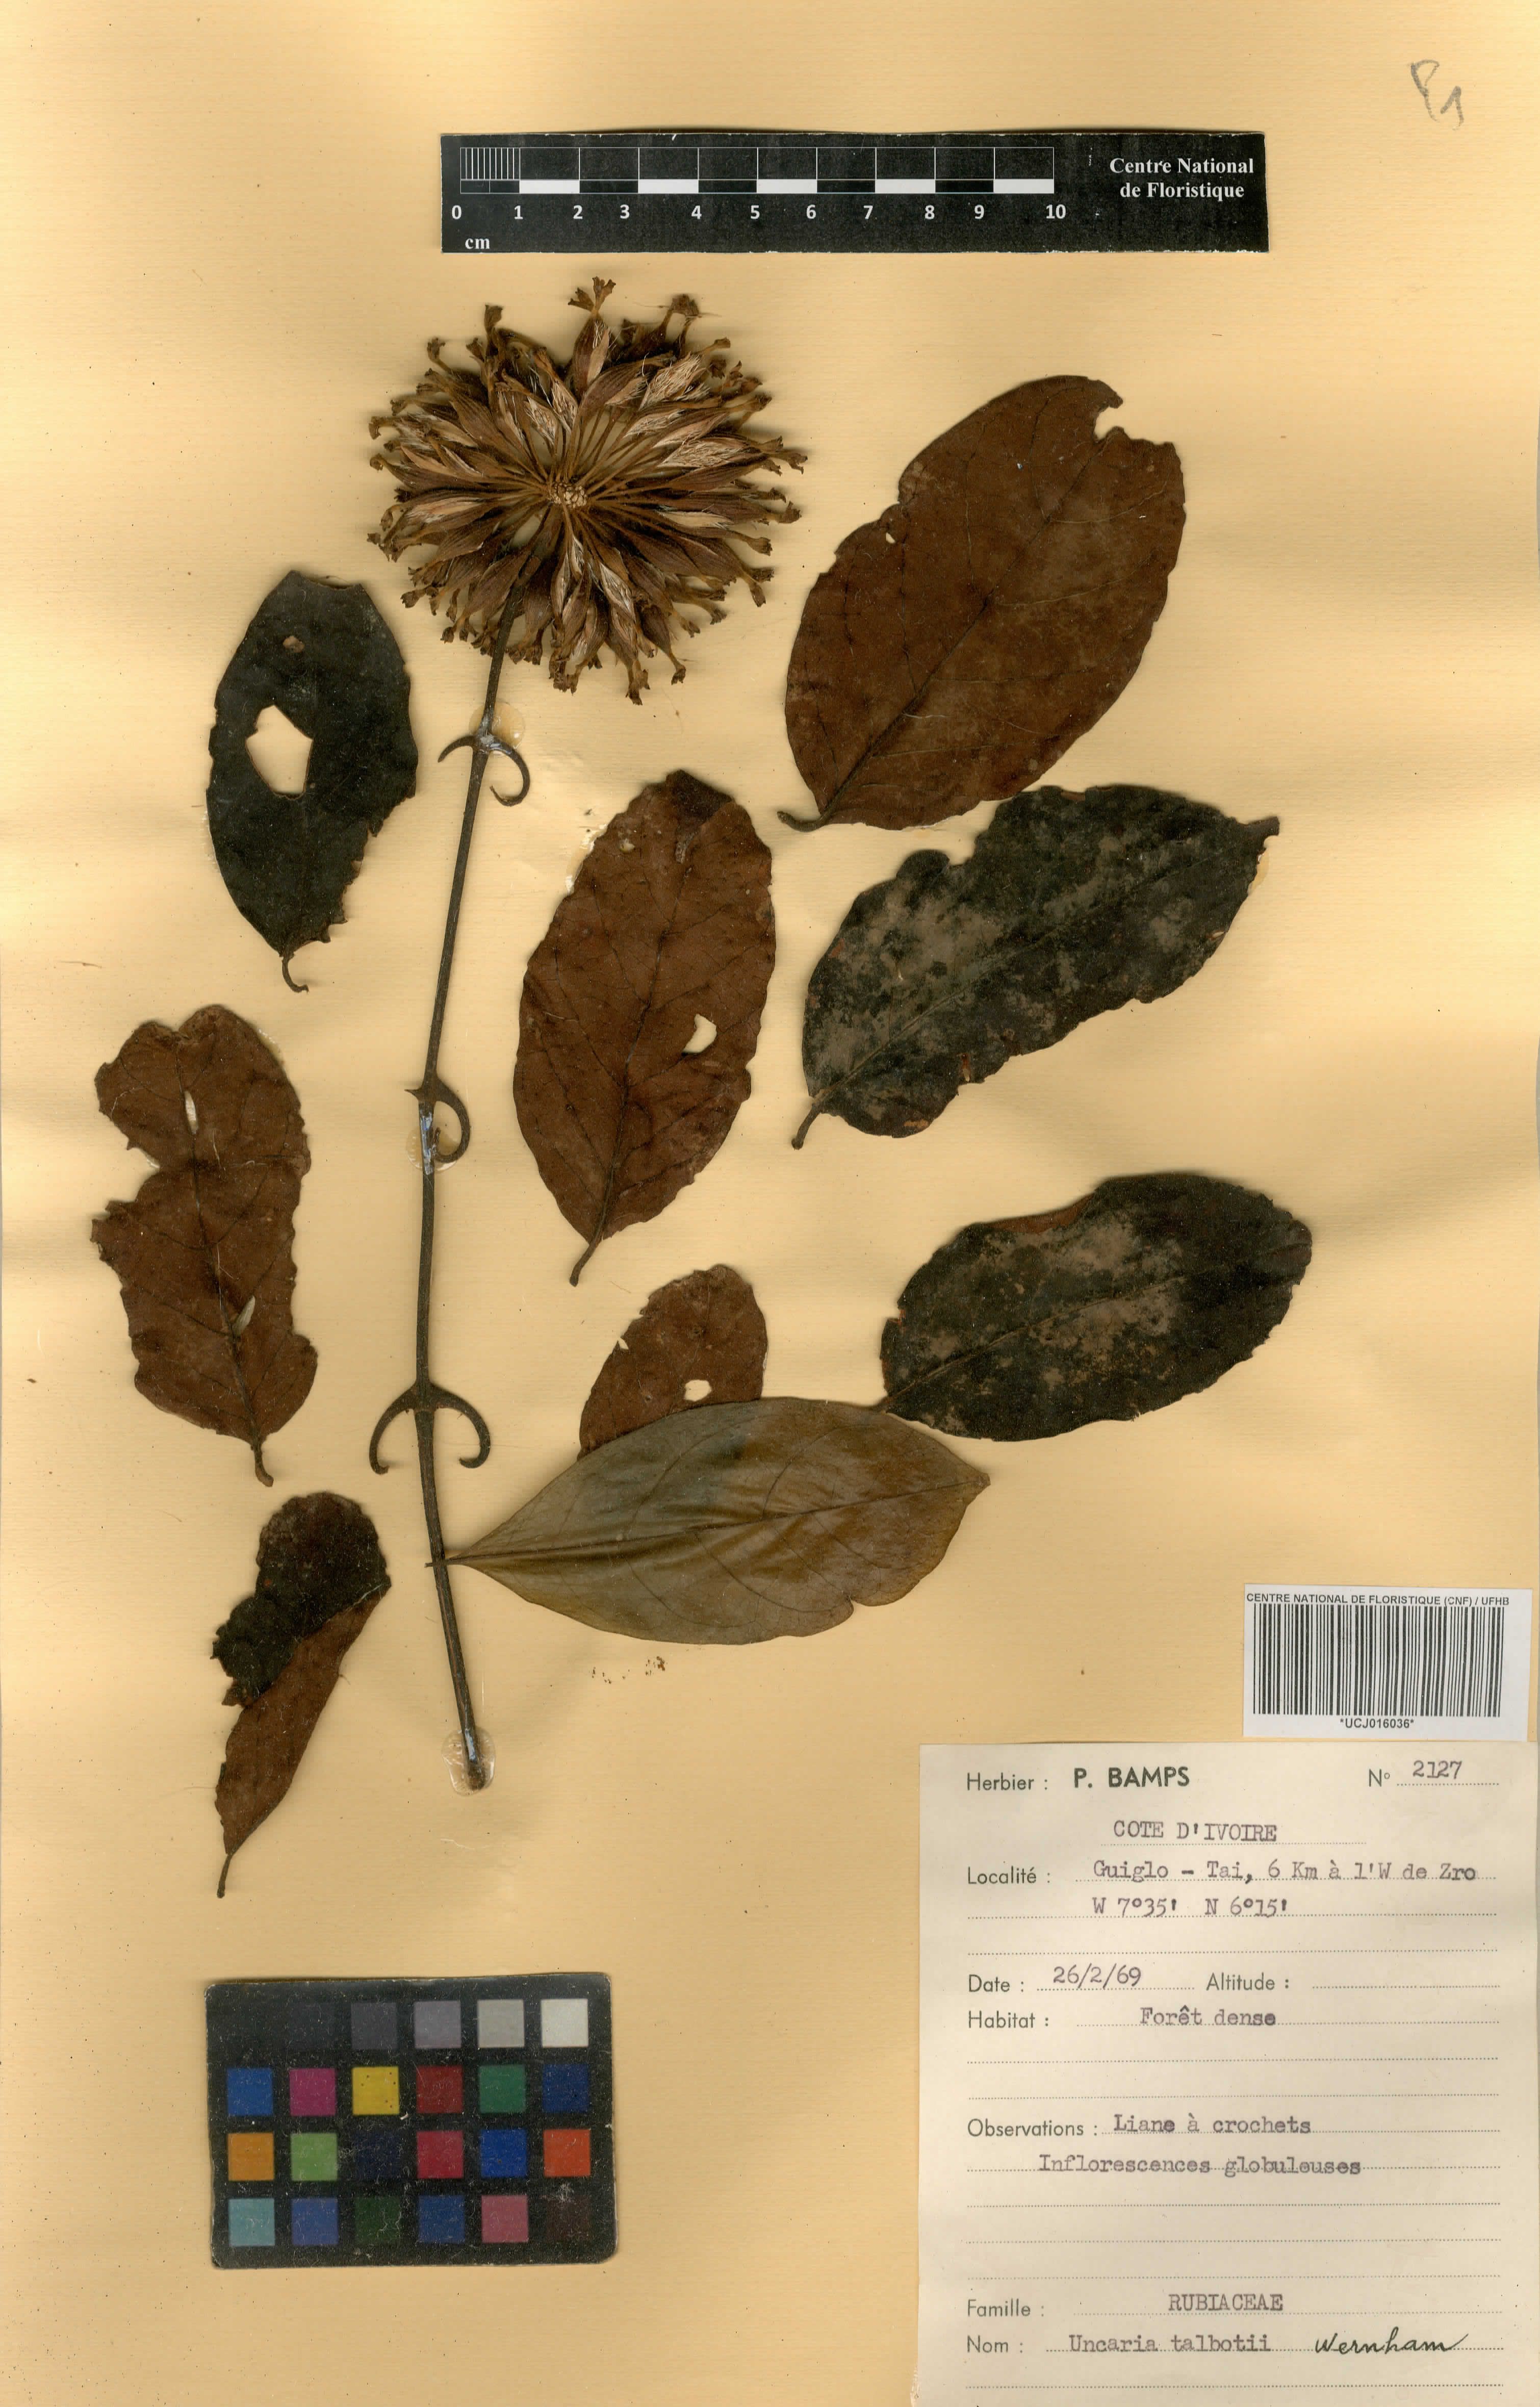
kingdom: Plantae
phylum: Tracheophyta
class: Magnoliopsida
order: Gentianales
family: Rubiaceae
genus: Uncaria
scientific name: Uncaria talbotii
